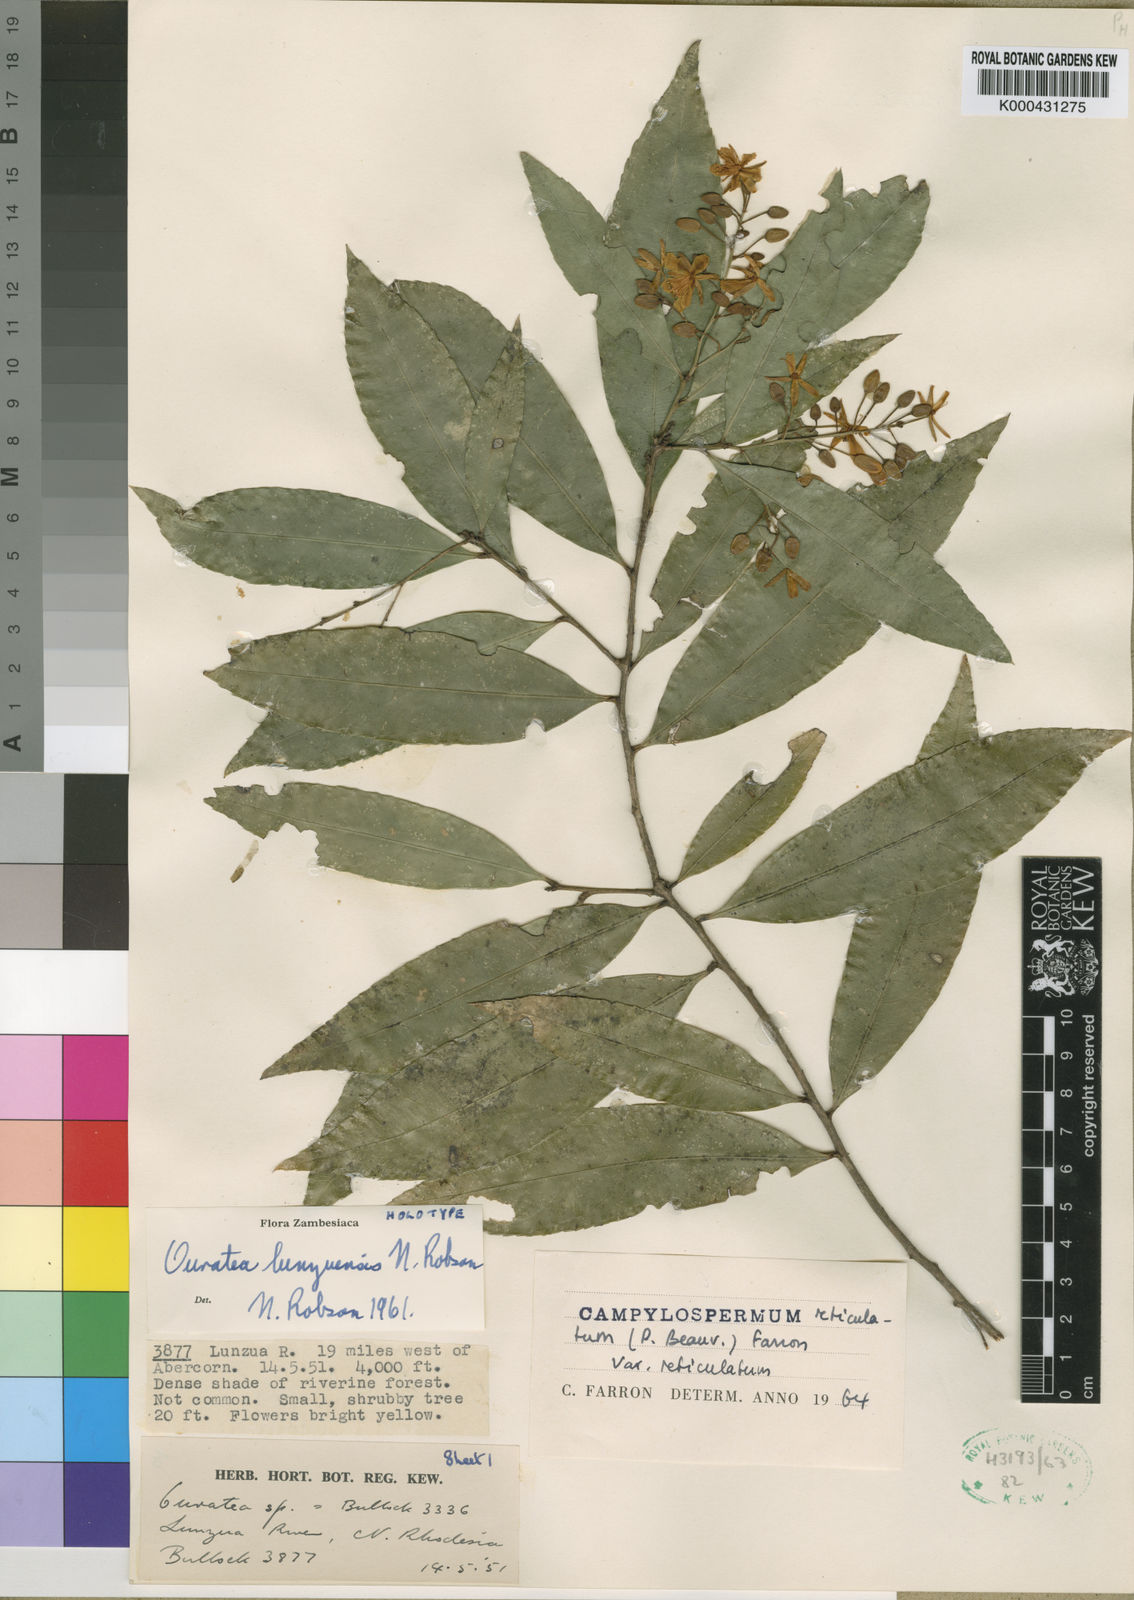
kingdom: Plantae
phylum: Tracheophyta
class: Magnoliopsida
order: Malpighiales
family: Ochnaceae
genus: Campylospermum
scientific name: Campylospermum reticulatum
